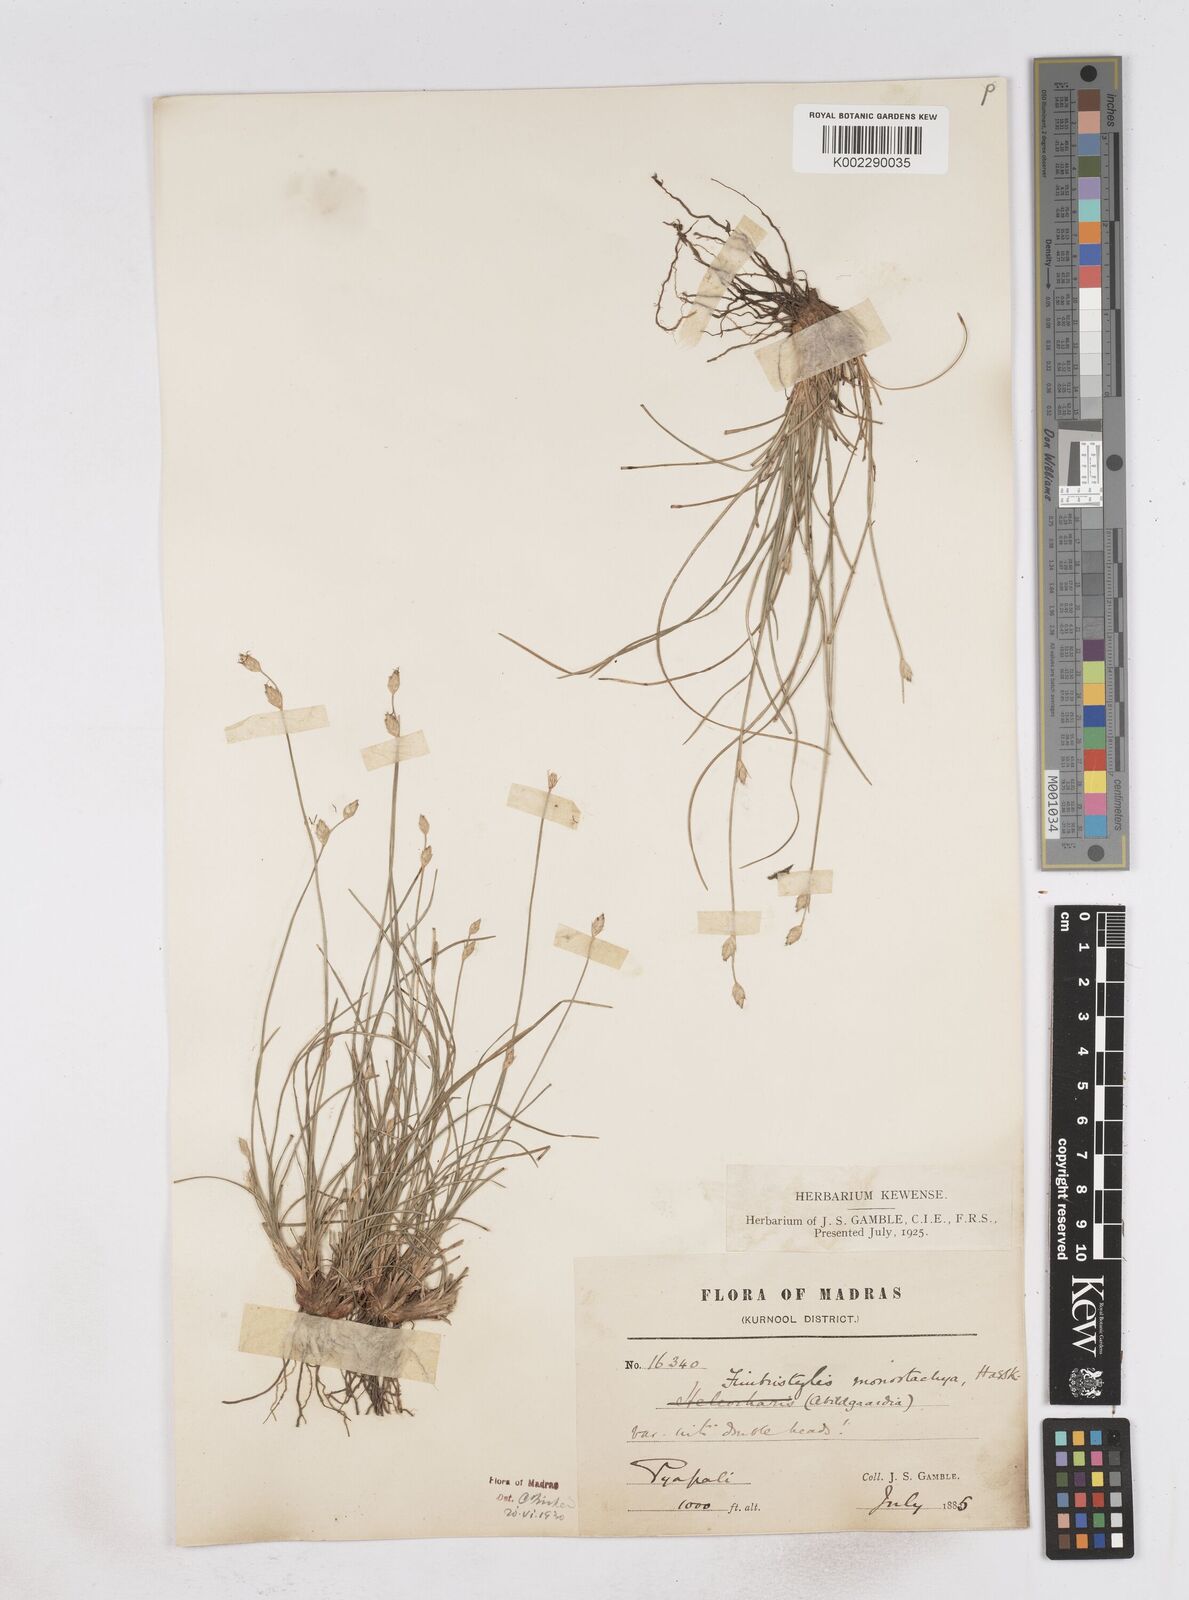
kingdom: Plantae
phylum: Tracheophyta
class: Liliopsida
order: Poales
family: Cyperaceae
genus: Abildgaardia
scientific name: Abildgaardia ovata
